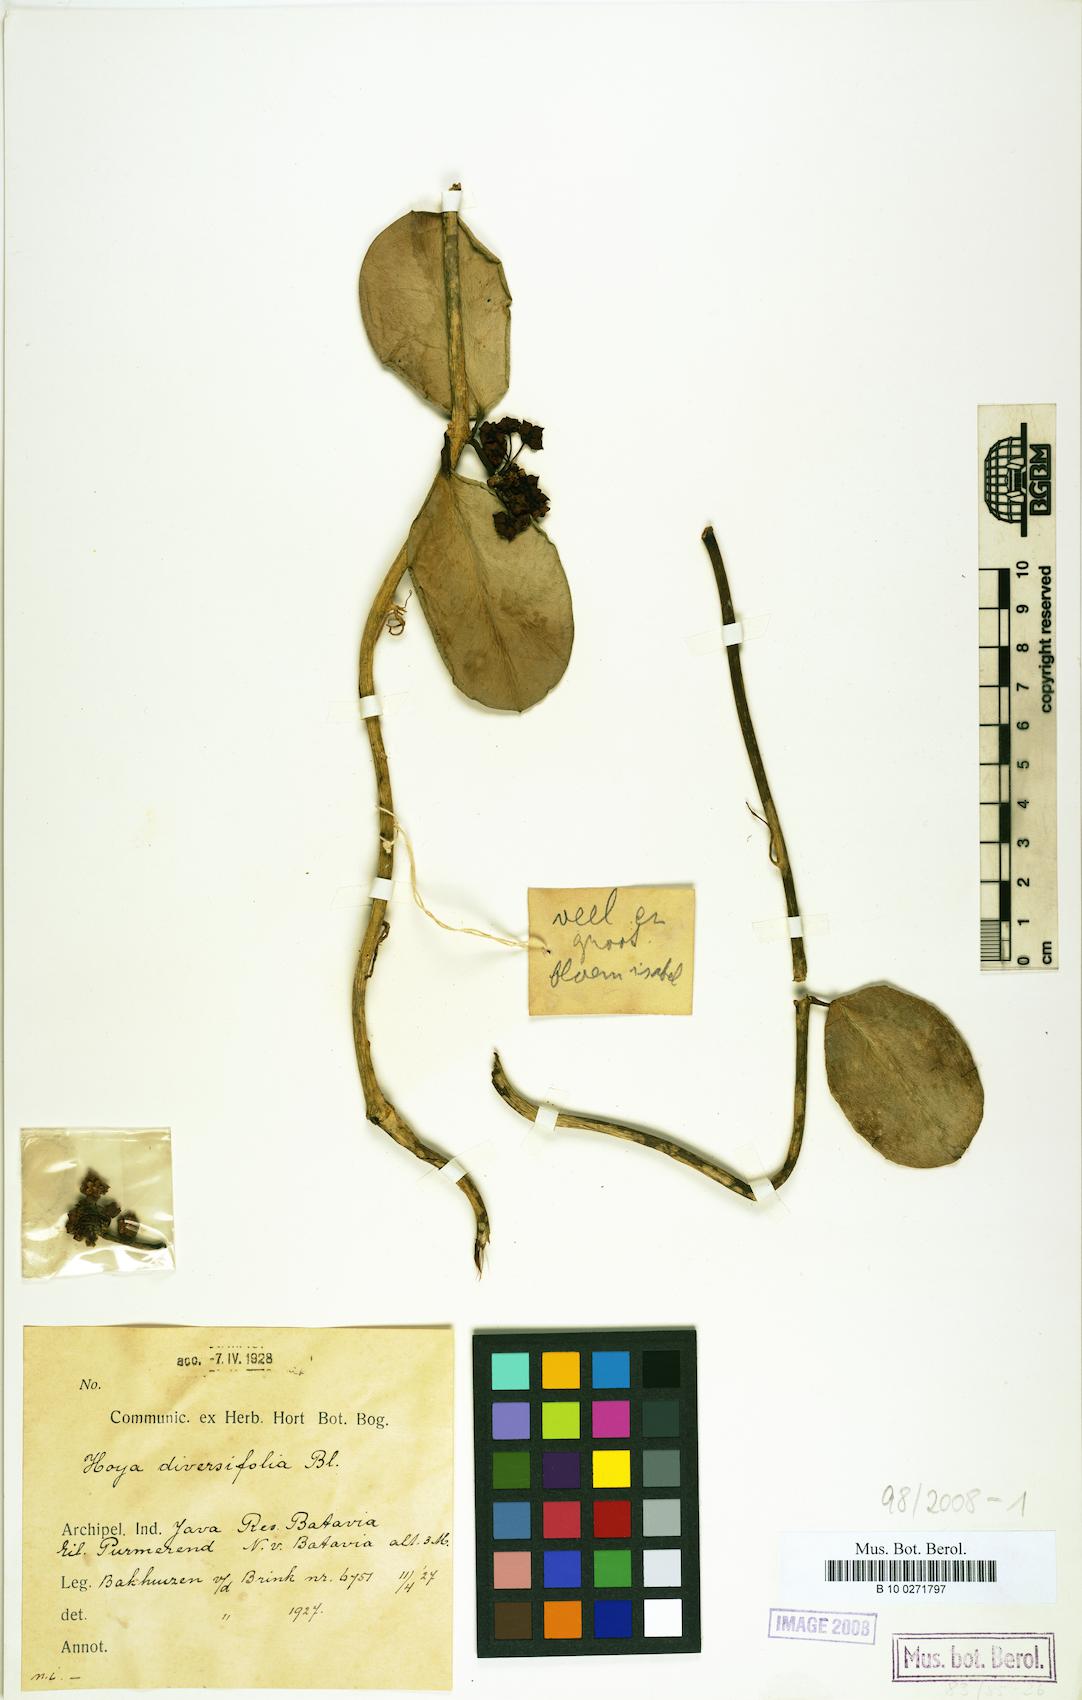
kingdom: Plantae
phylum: Tracheophyta
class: Magnoliopsida
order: Gentianales
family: Apocynaceae
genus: Hoya
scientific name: Hoya diversifolia
